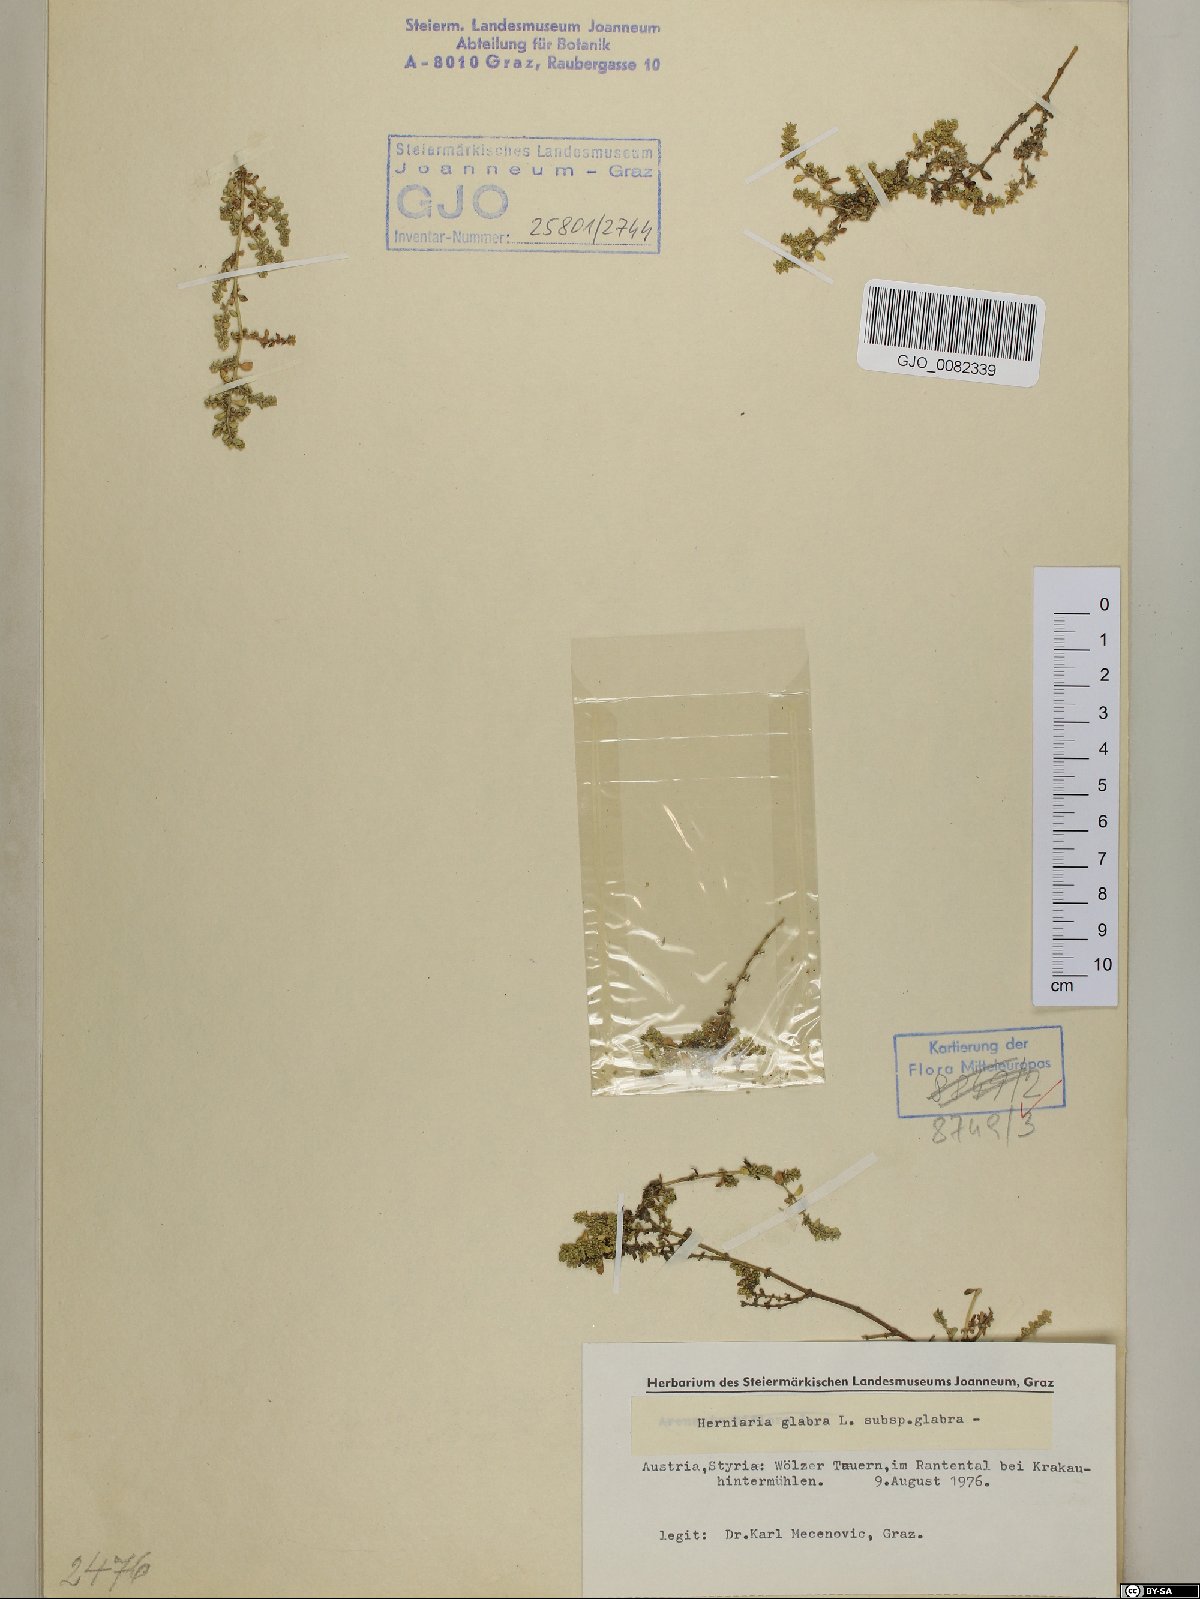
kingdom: Plantae
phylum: Tracheophyta
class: Magnoliopsida
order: Caryophyllales
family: Caryophyllaceae
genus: Herniaria
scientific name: Herniaria glabra
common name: Smooth rupturewort
